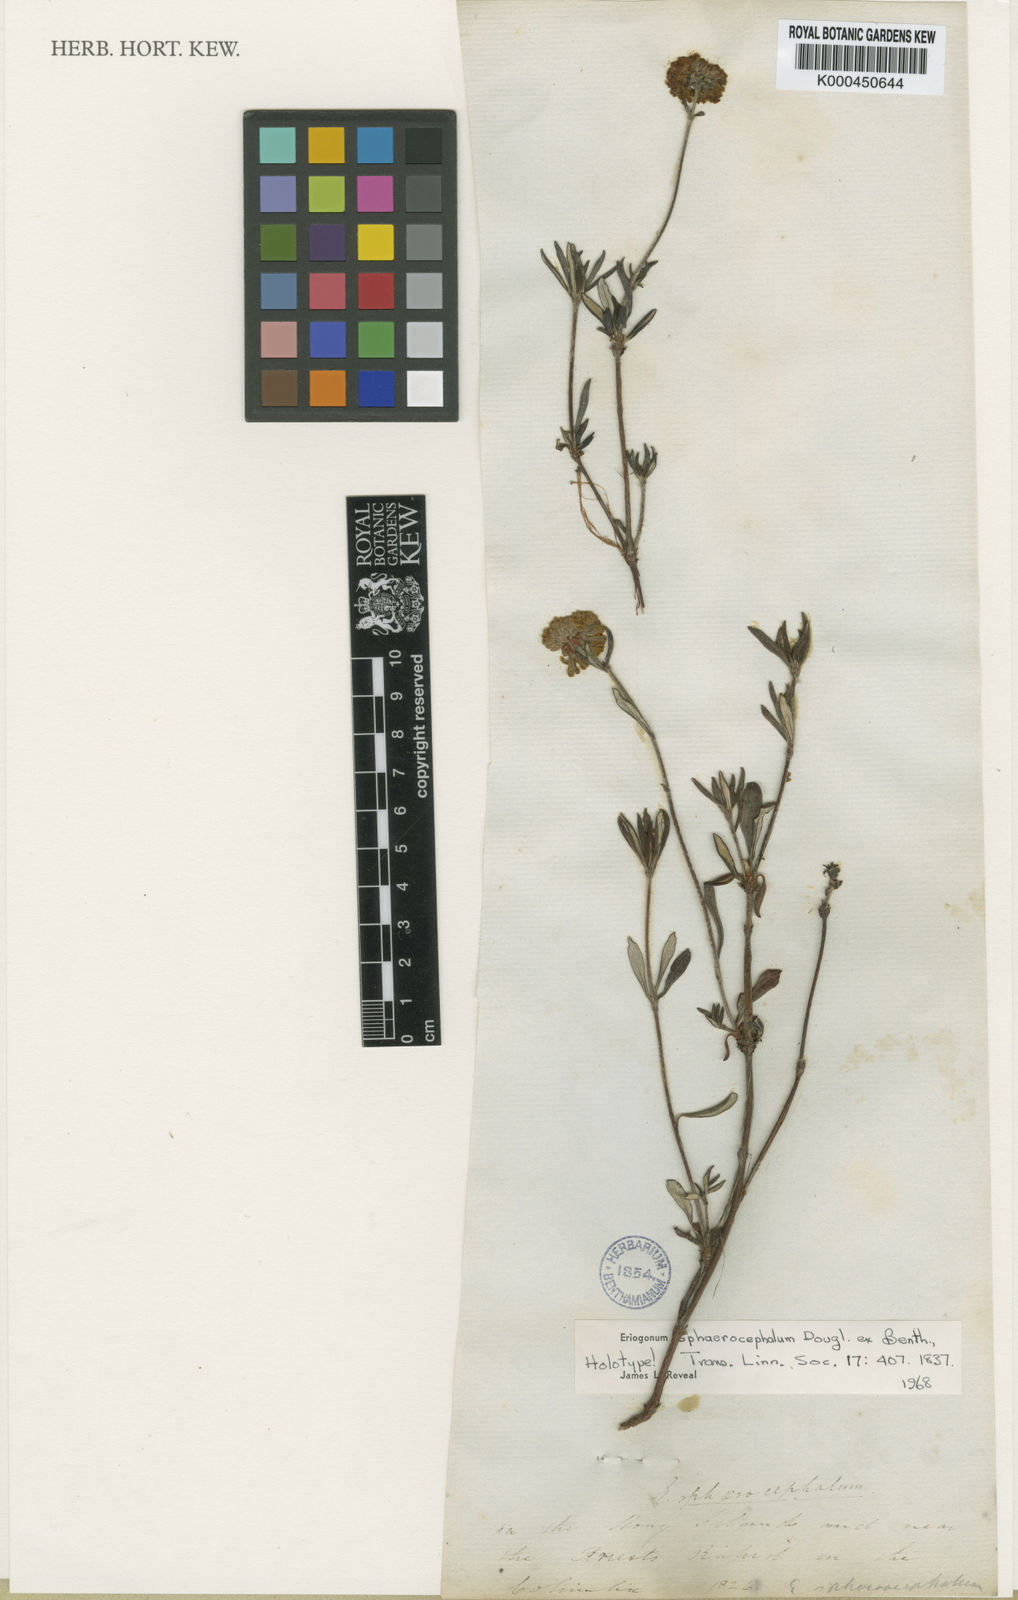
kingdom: Plantae
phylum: Tracheophyta
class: Magnoliopsida
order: Caryophyllales
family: Polygonaceae
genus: Eriogonum
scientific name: Eriogonum sphaerocephalum
